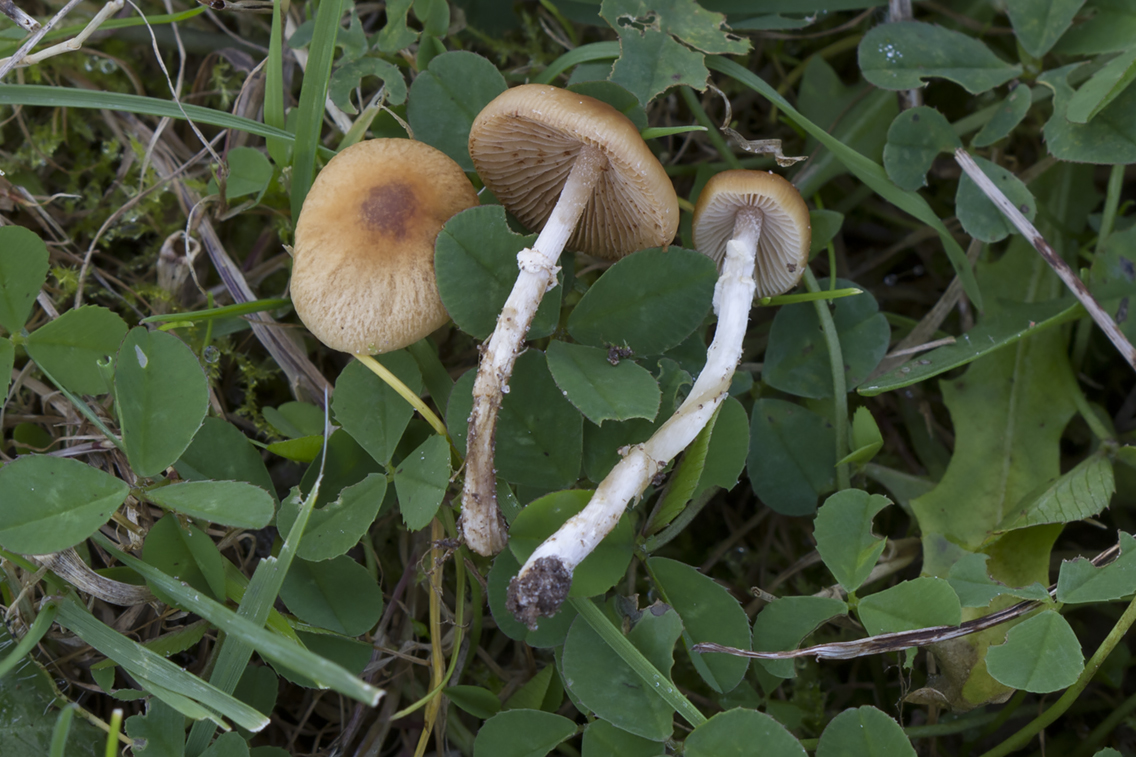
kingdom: Fungi
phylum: Basidiomycota
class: Agaricomycetes
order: Agaricales
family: Bolbitiaceae
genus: Conocybe
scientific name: Conocybe arrhenii
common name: ring-dansehat
